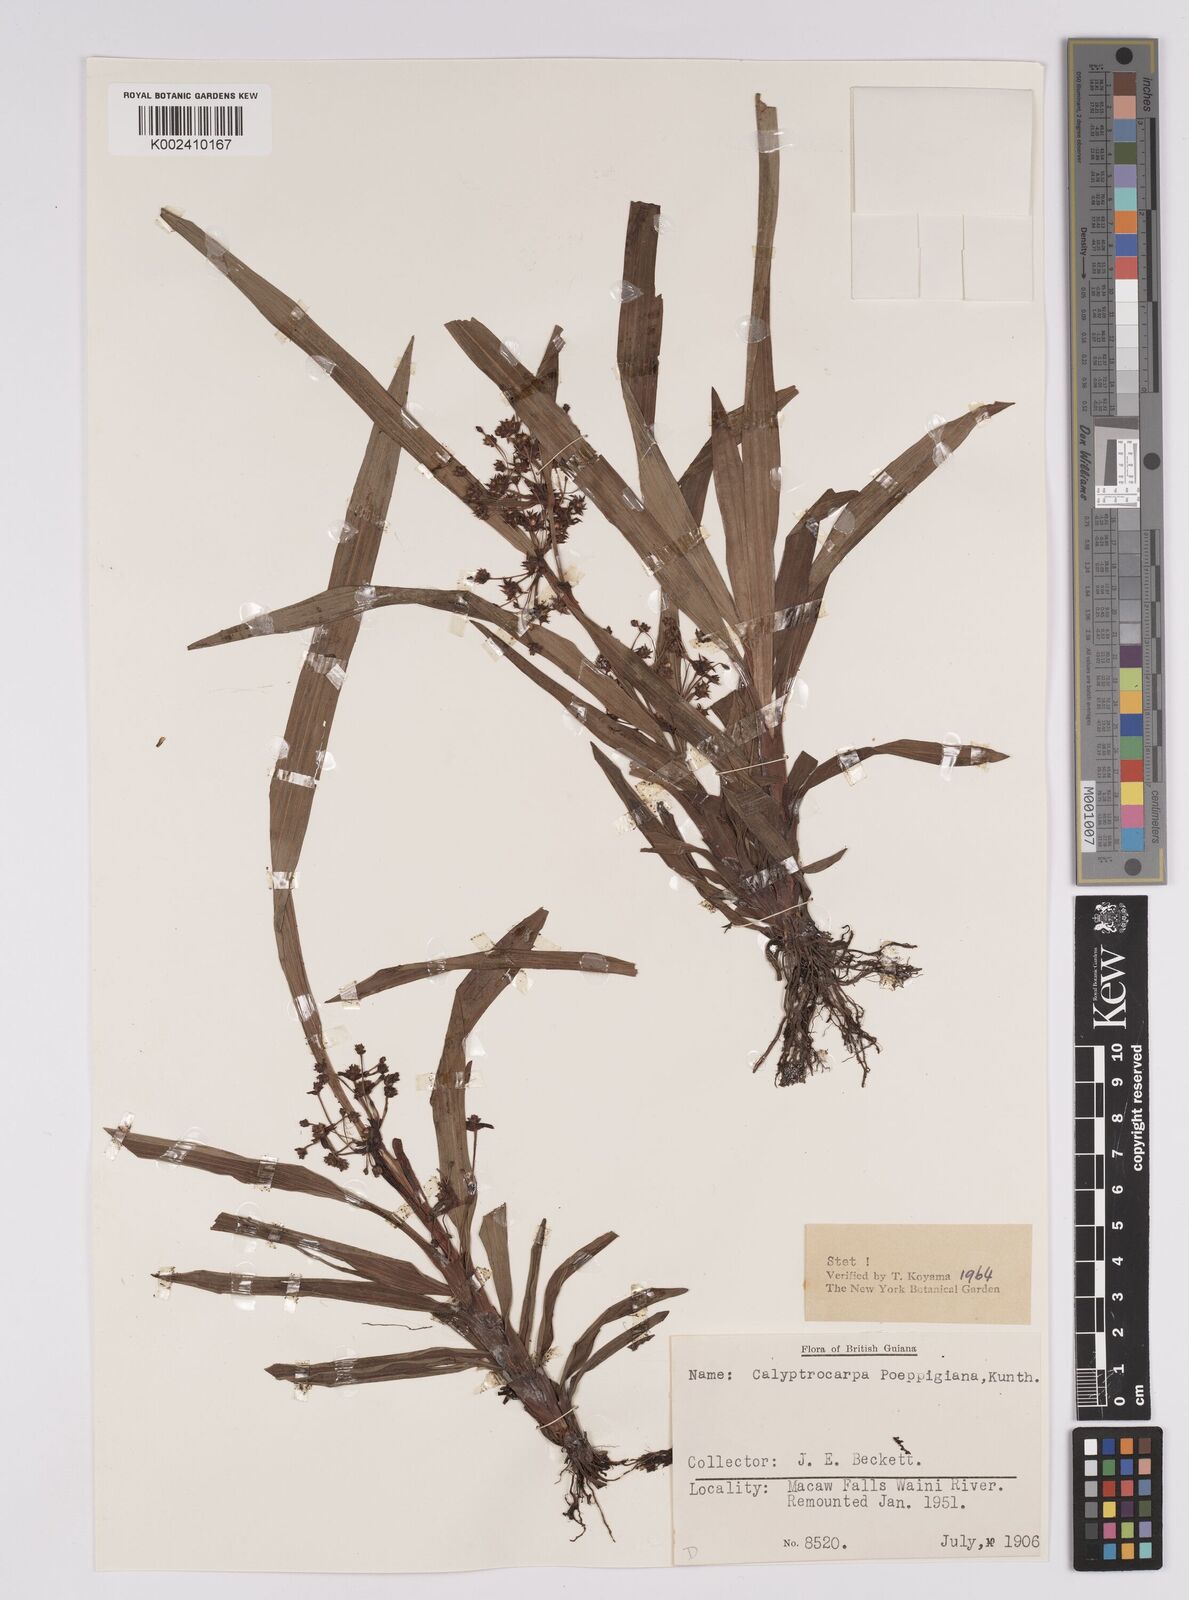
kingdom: Plantae
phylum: Tracheophyta
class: Liliopsida
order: Poales
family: Cyperaceae
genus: Calyptrocarya
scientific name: Calyptrocarya poeppigiana
